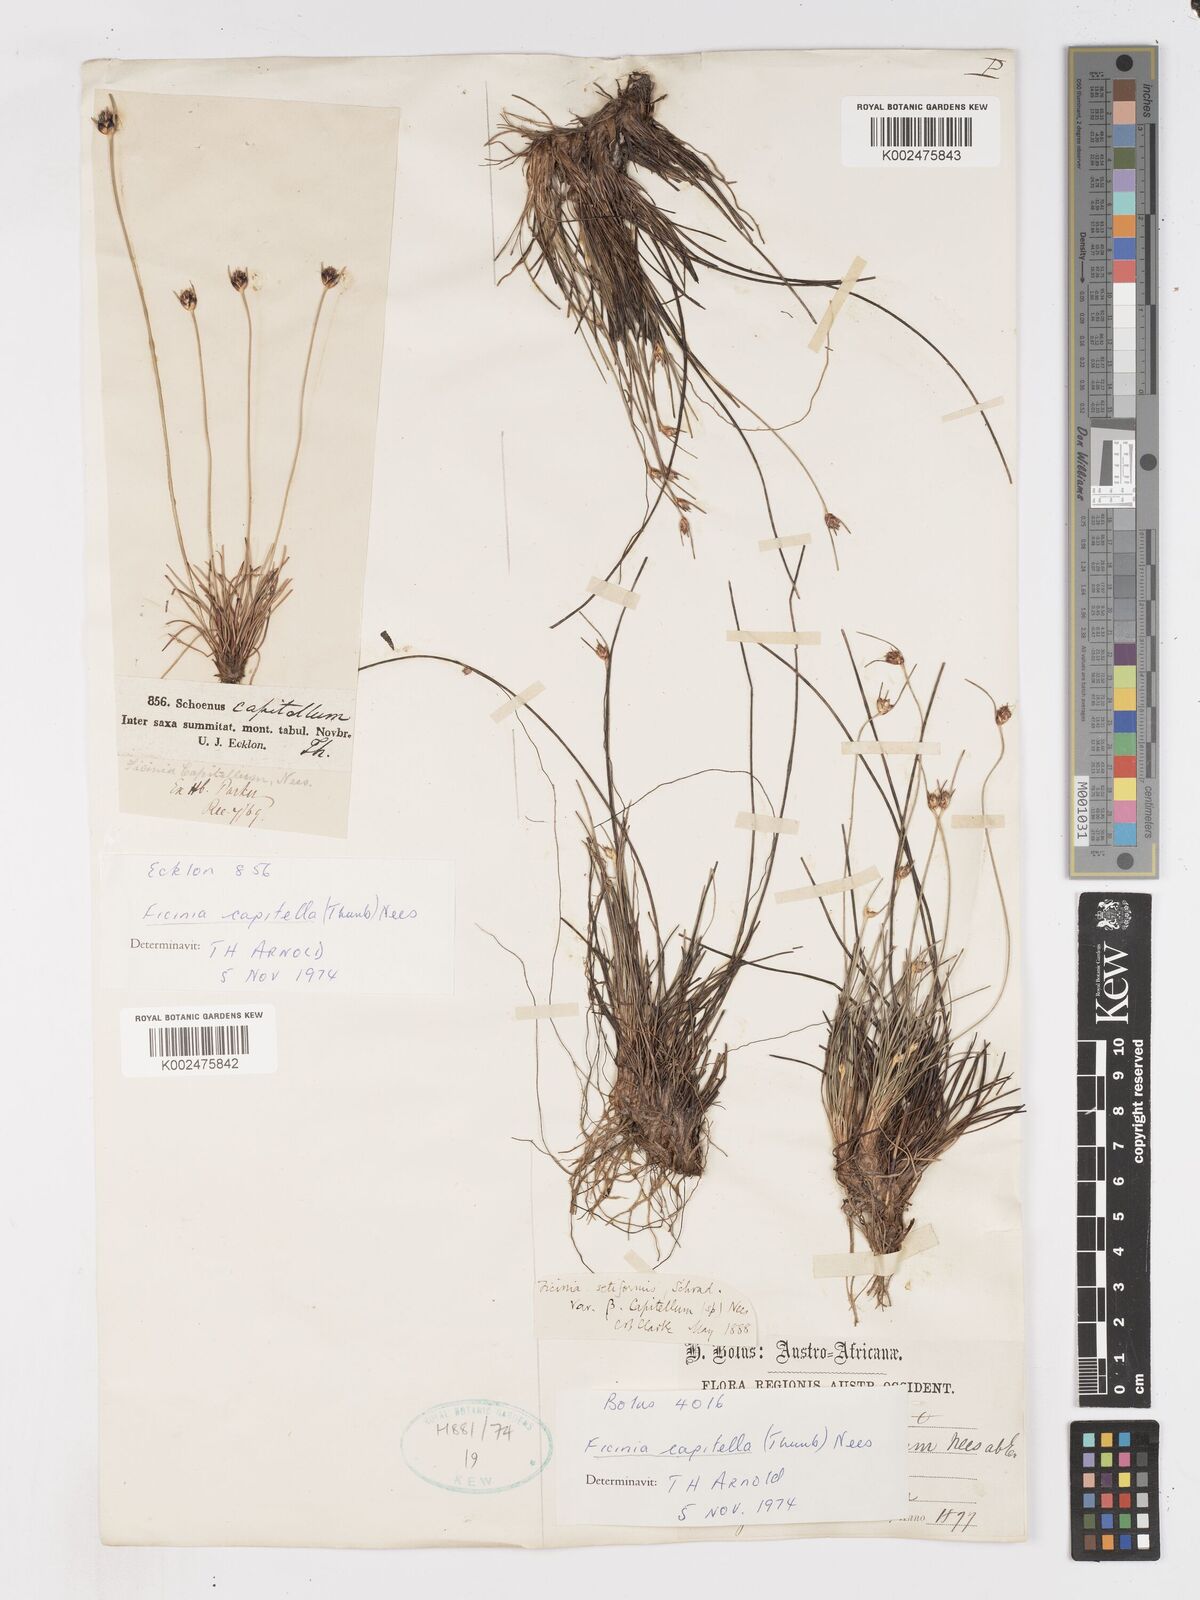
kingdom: Plantae
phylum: Tracheophyta
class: Liliopsida
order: Poales
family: Cyperaceae
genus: Ficinia
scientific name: Ficinia capitella
